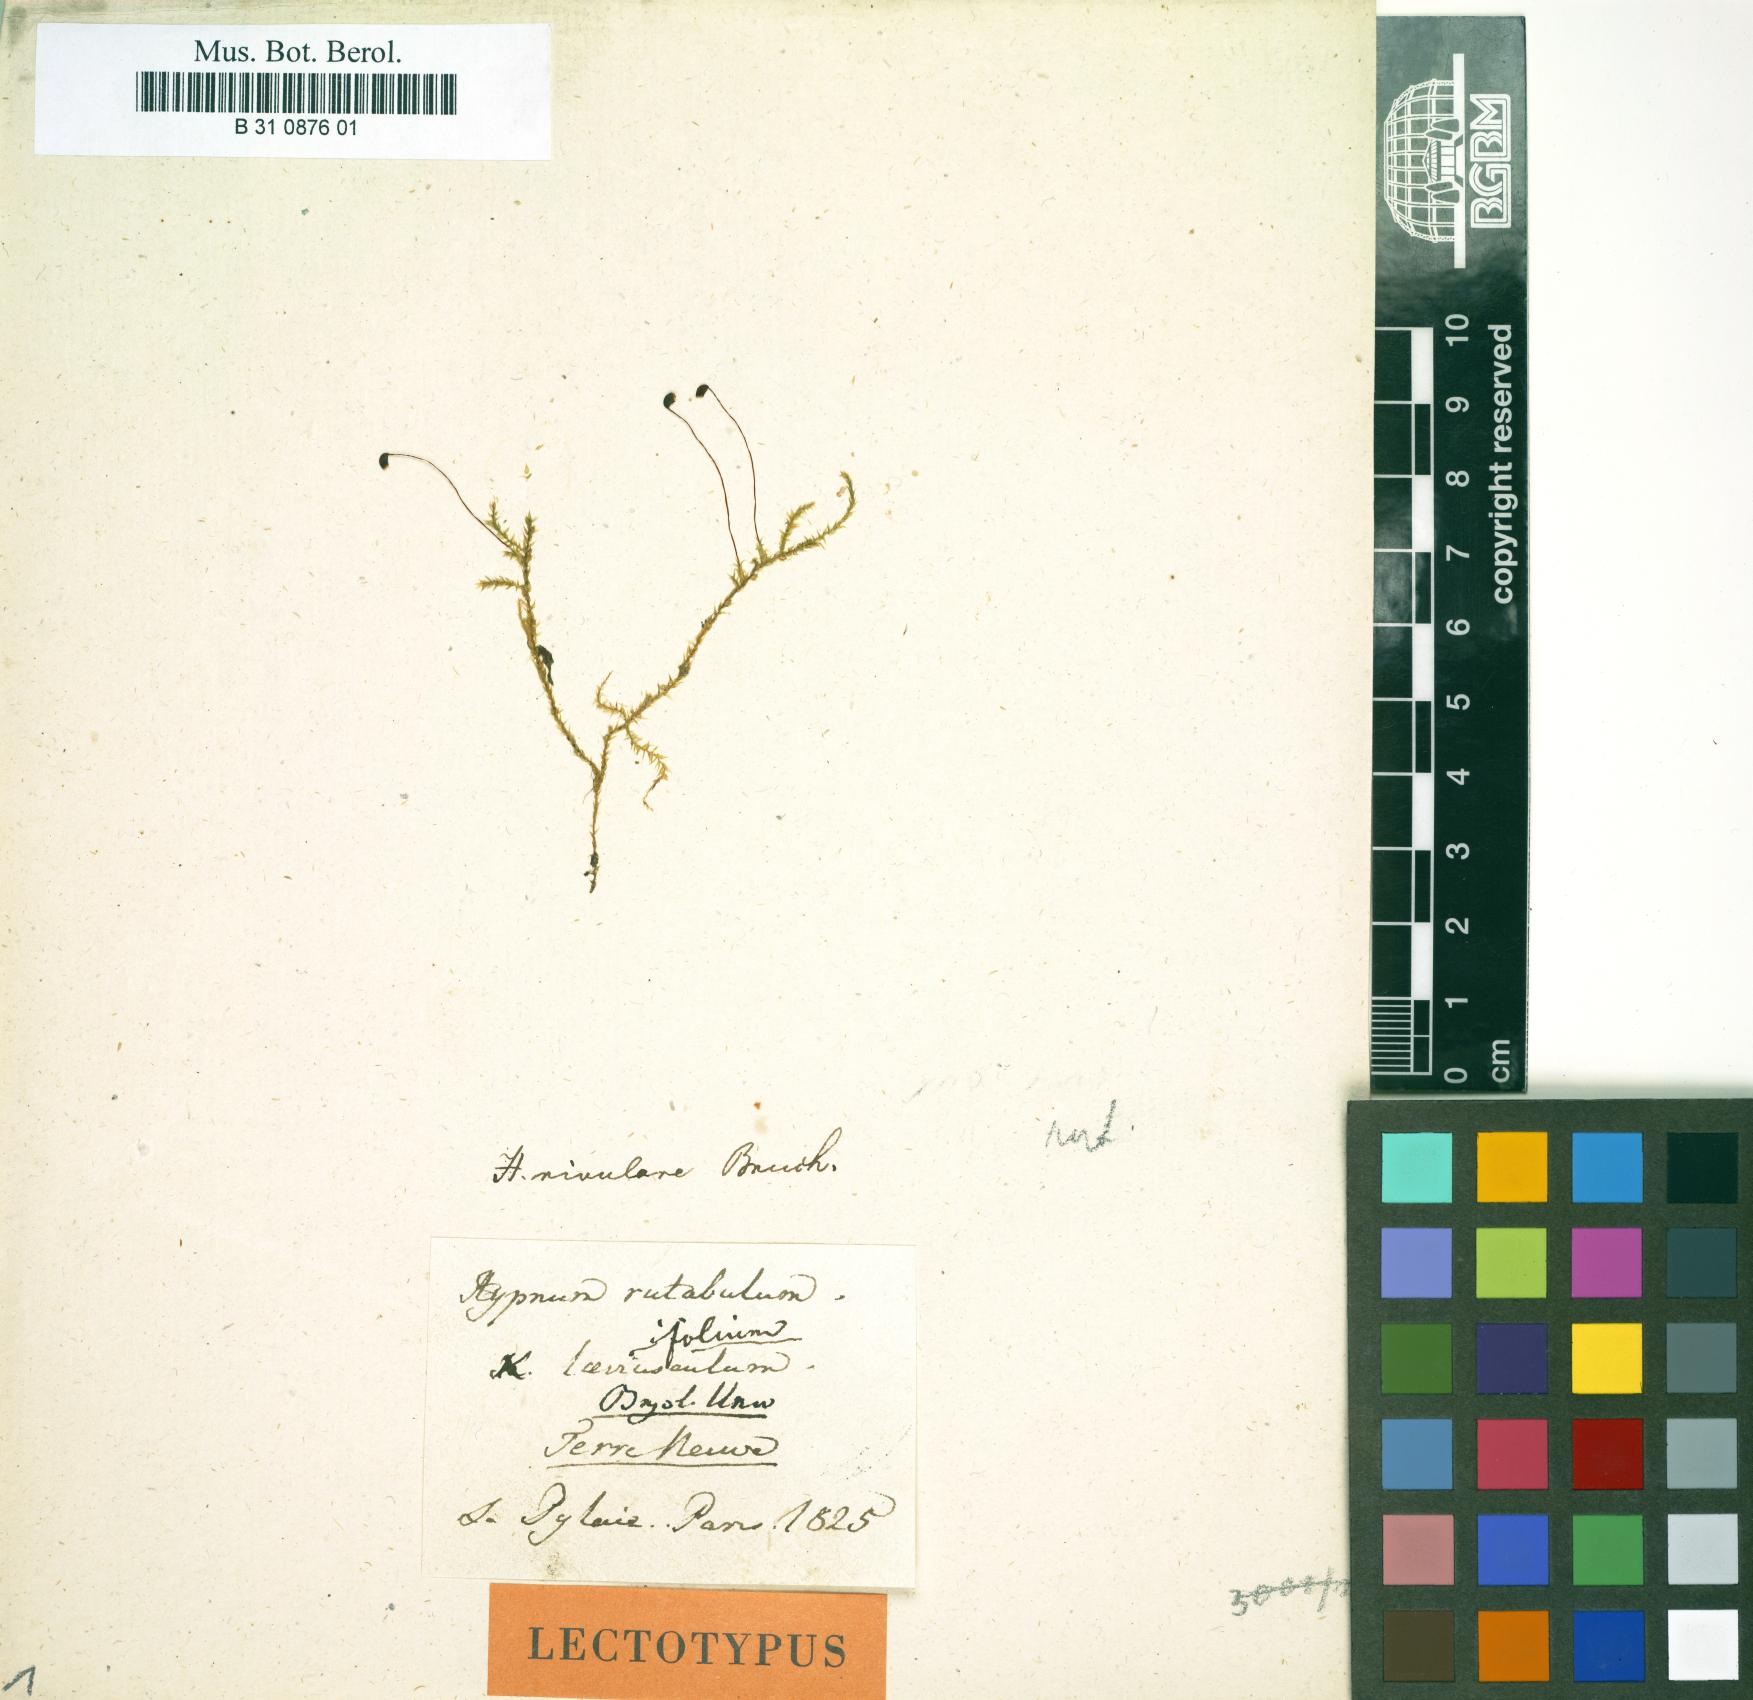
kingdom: Plantae
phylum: Bryophyta
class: Bryopsida
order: Hypnales
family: Brachytheciaceae
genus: Brachythecium
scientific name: Brachythecium rutabulum
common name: Rough-stalked feather-moss
